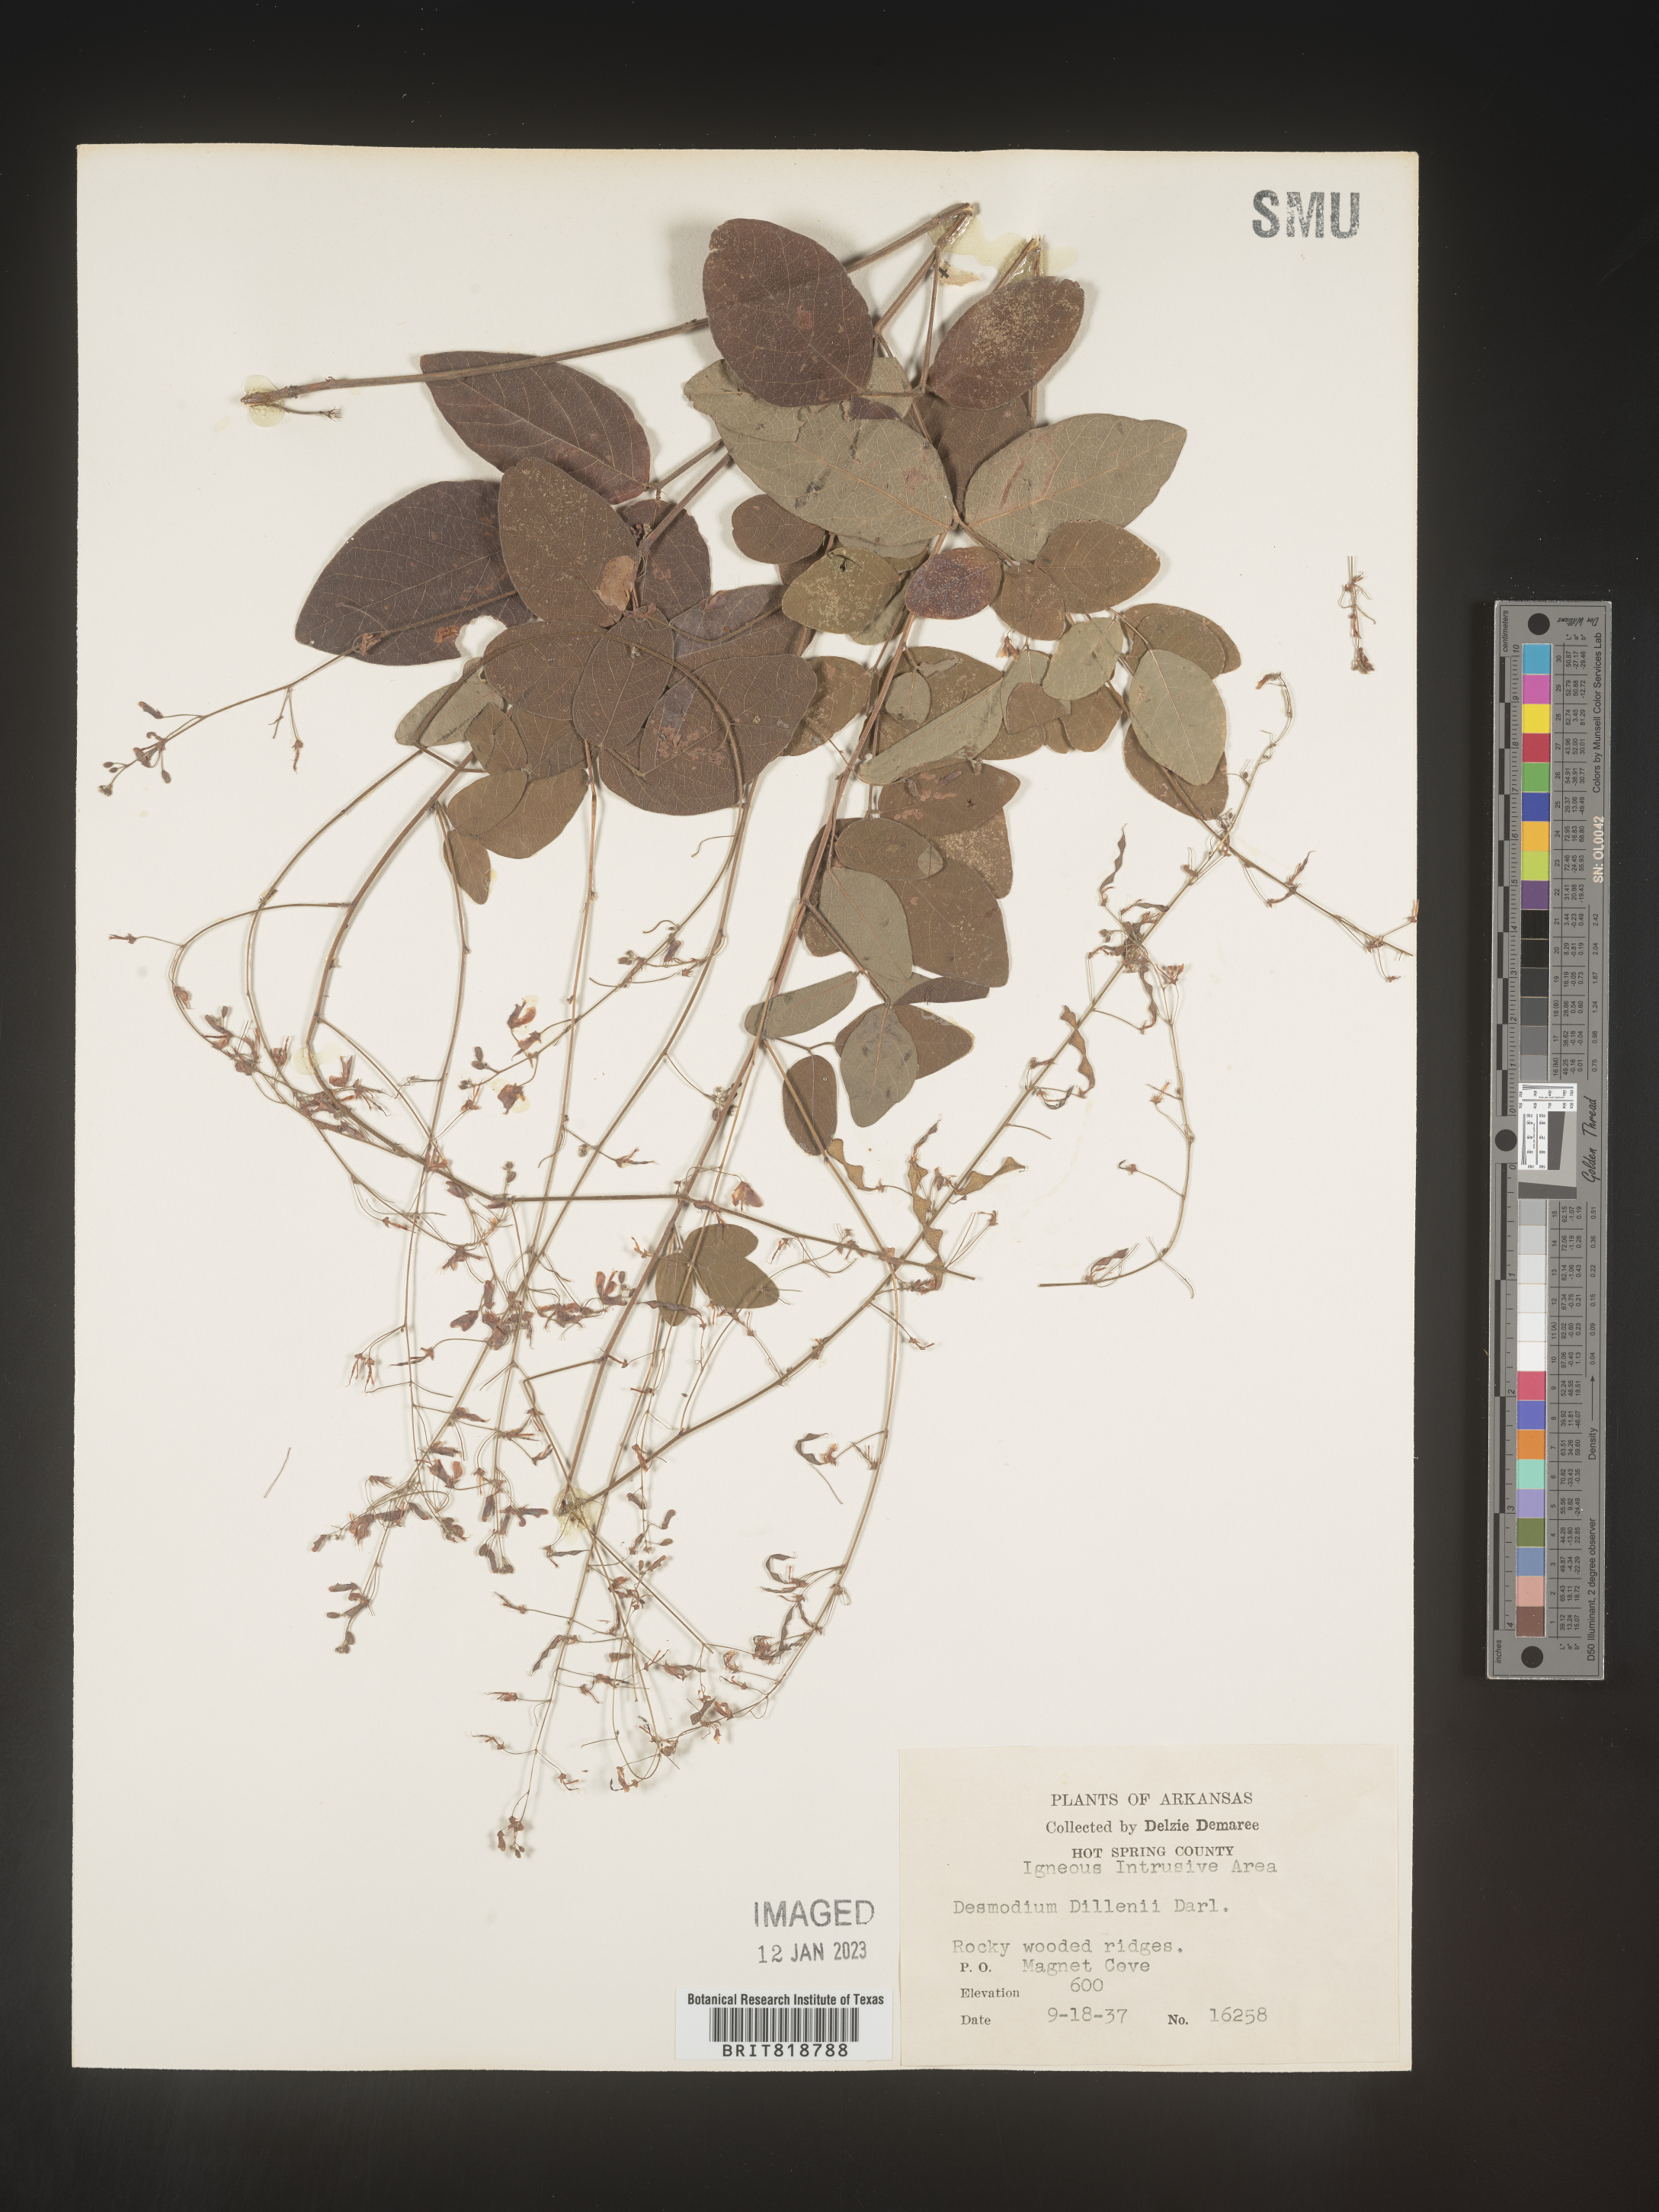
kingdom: Plantae
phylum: Tracheophyta
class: Magnoliopsida
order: Fabales
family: Fabaceae
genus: Desmodium
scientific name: Desmodium perplexum
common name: Perplexed tick trefoil
